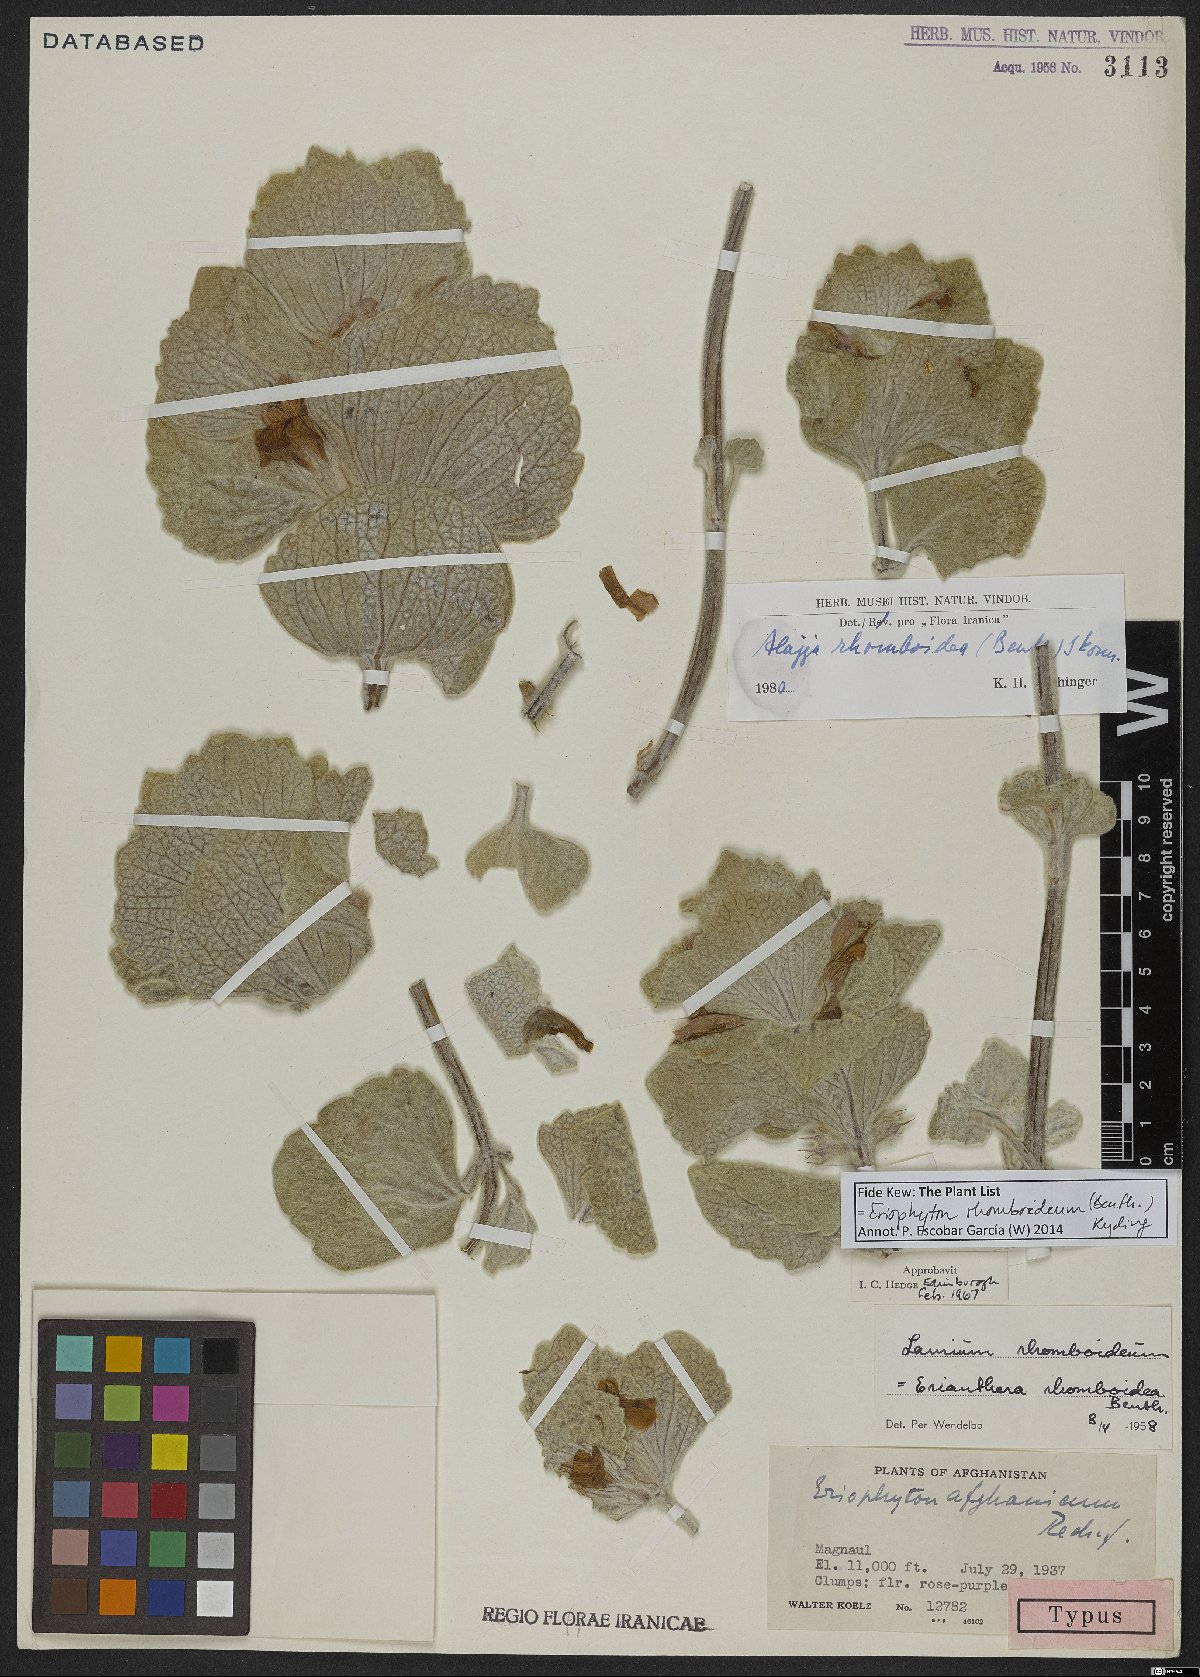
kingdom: Plantae
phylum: Tracheophyta
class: Magnoliopsida
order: Lamiales
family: Lamiaceae
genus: Eriophyton
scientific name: Eriophyton rhomboideum
